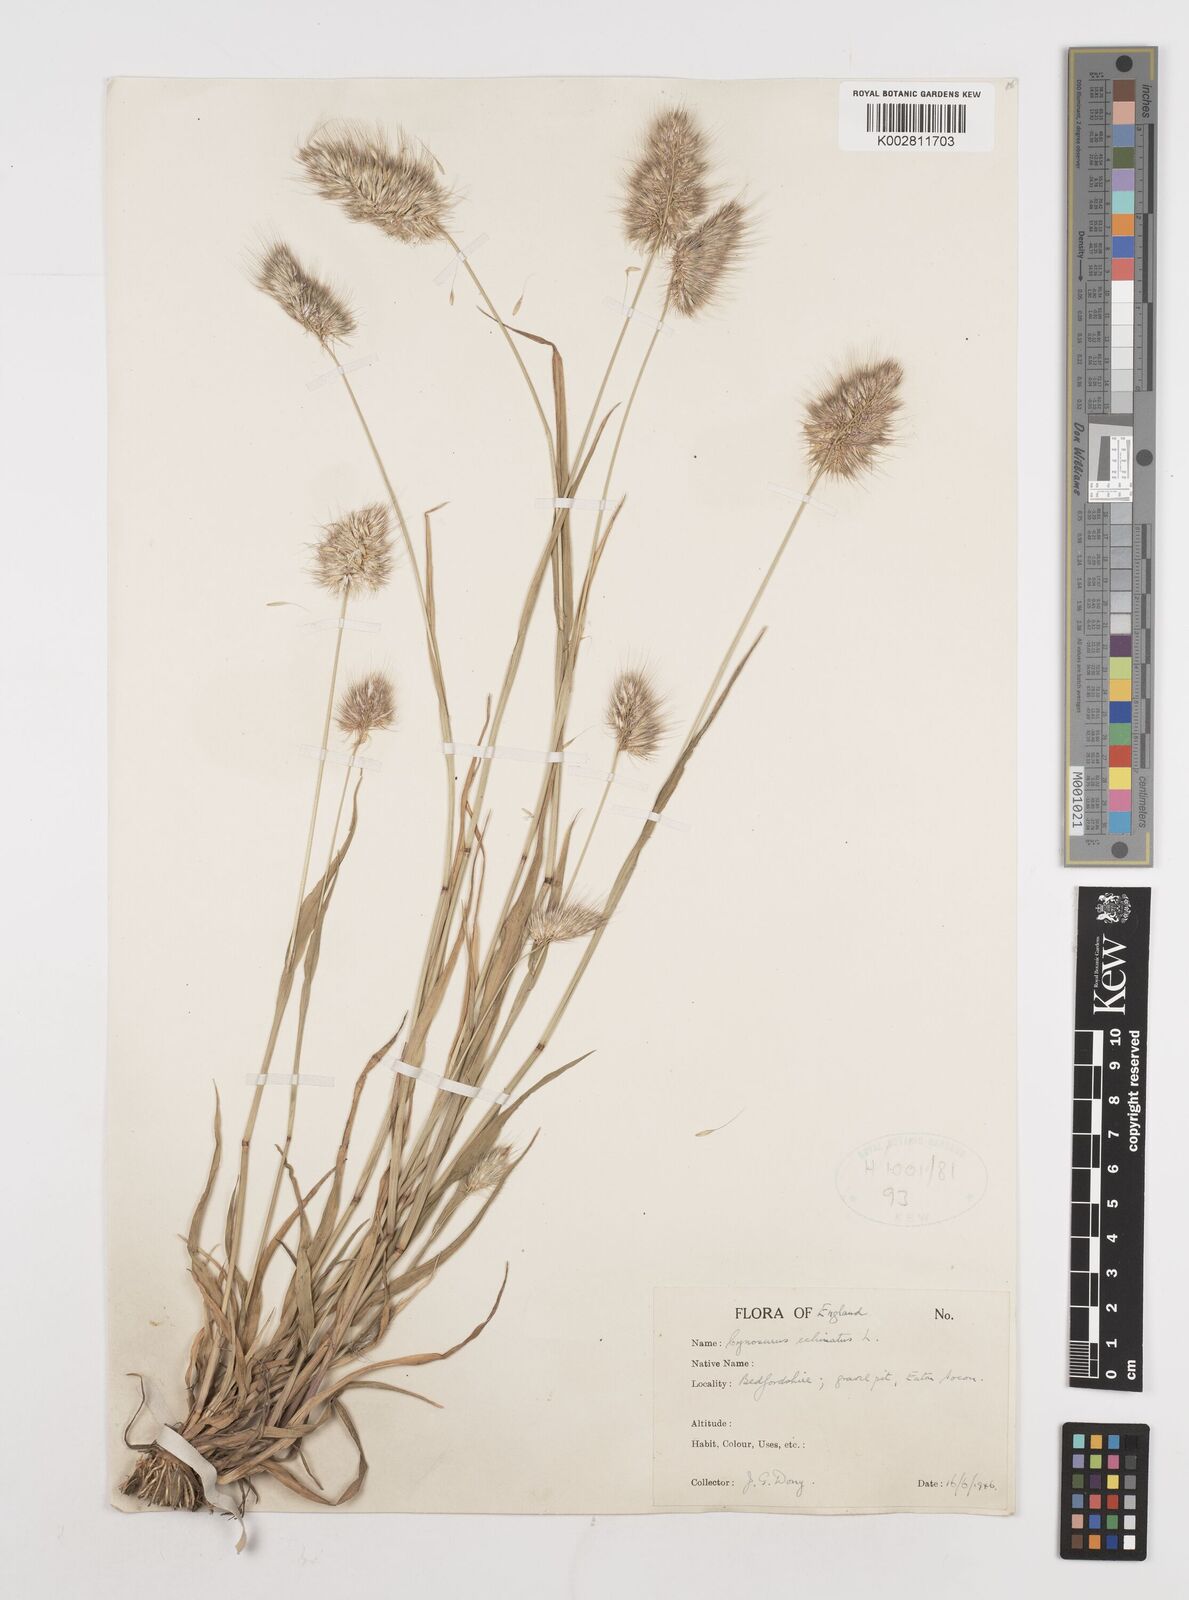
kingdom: Plantae
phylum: Tracheophyta
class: Liliopsida
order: Poales
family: Poaceae
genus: Cynosurus
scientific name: Cynosurus echinatus
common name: Rough dog's-tail
